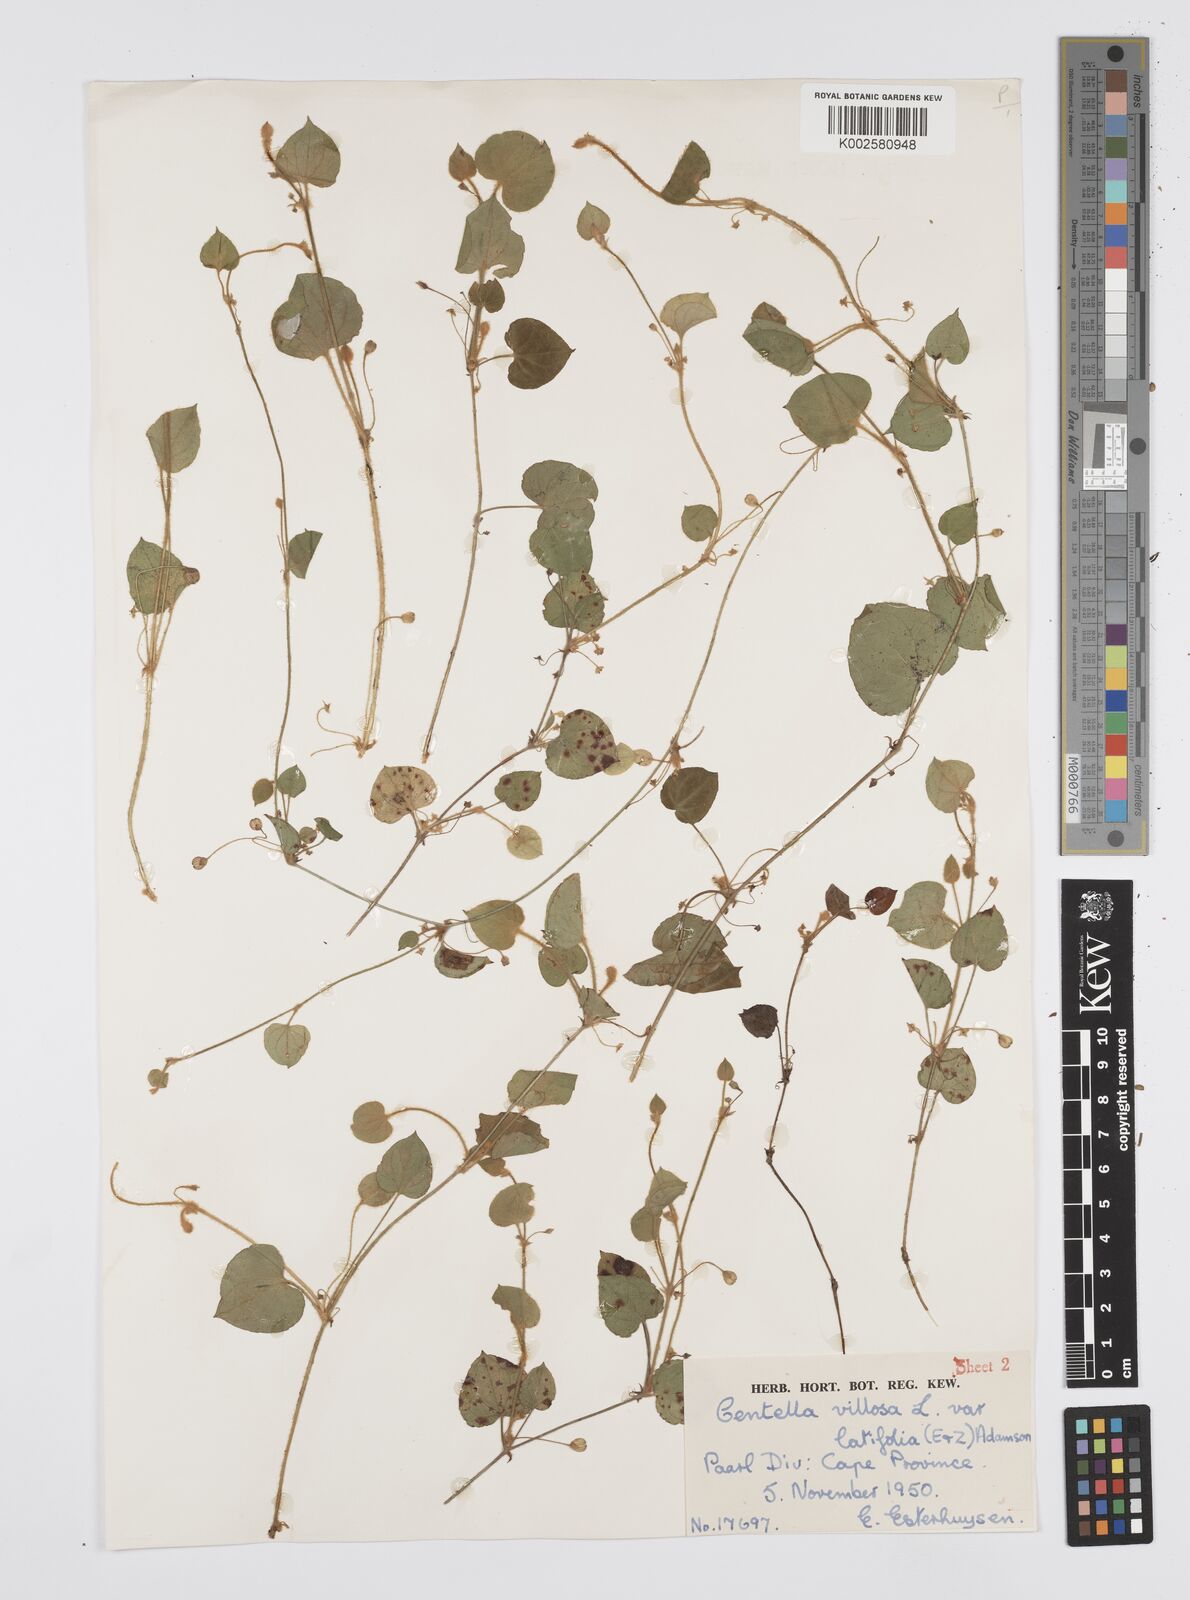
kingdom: Plantae
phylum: Tracheophyta
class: Magnoliopsida
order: Apiales
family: Apiaceae
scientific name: Apiaceae
